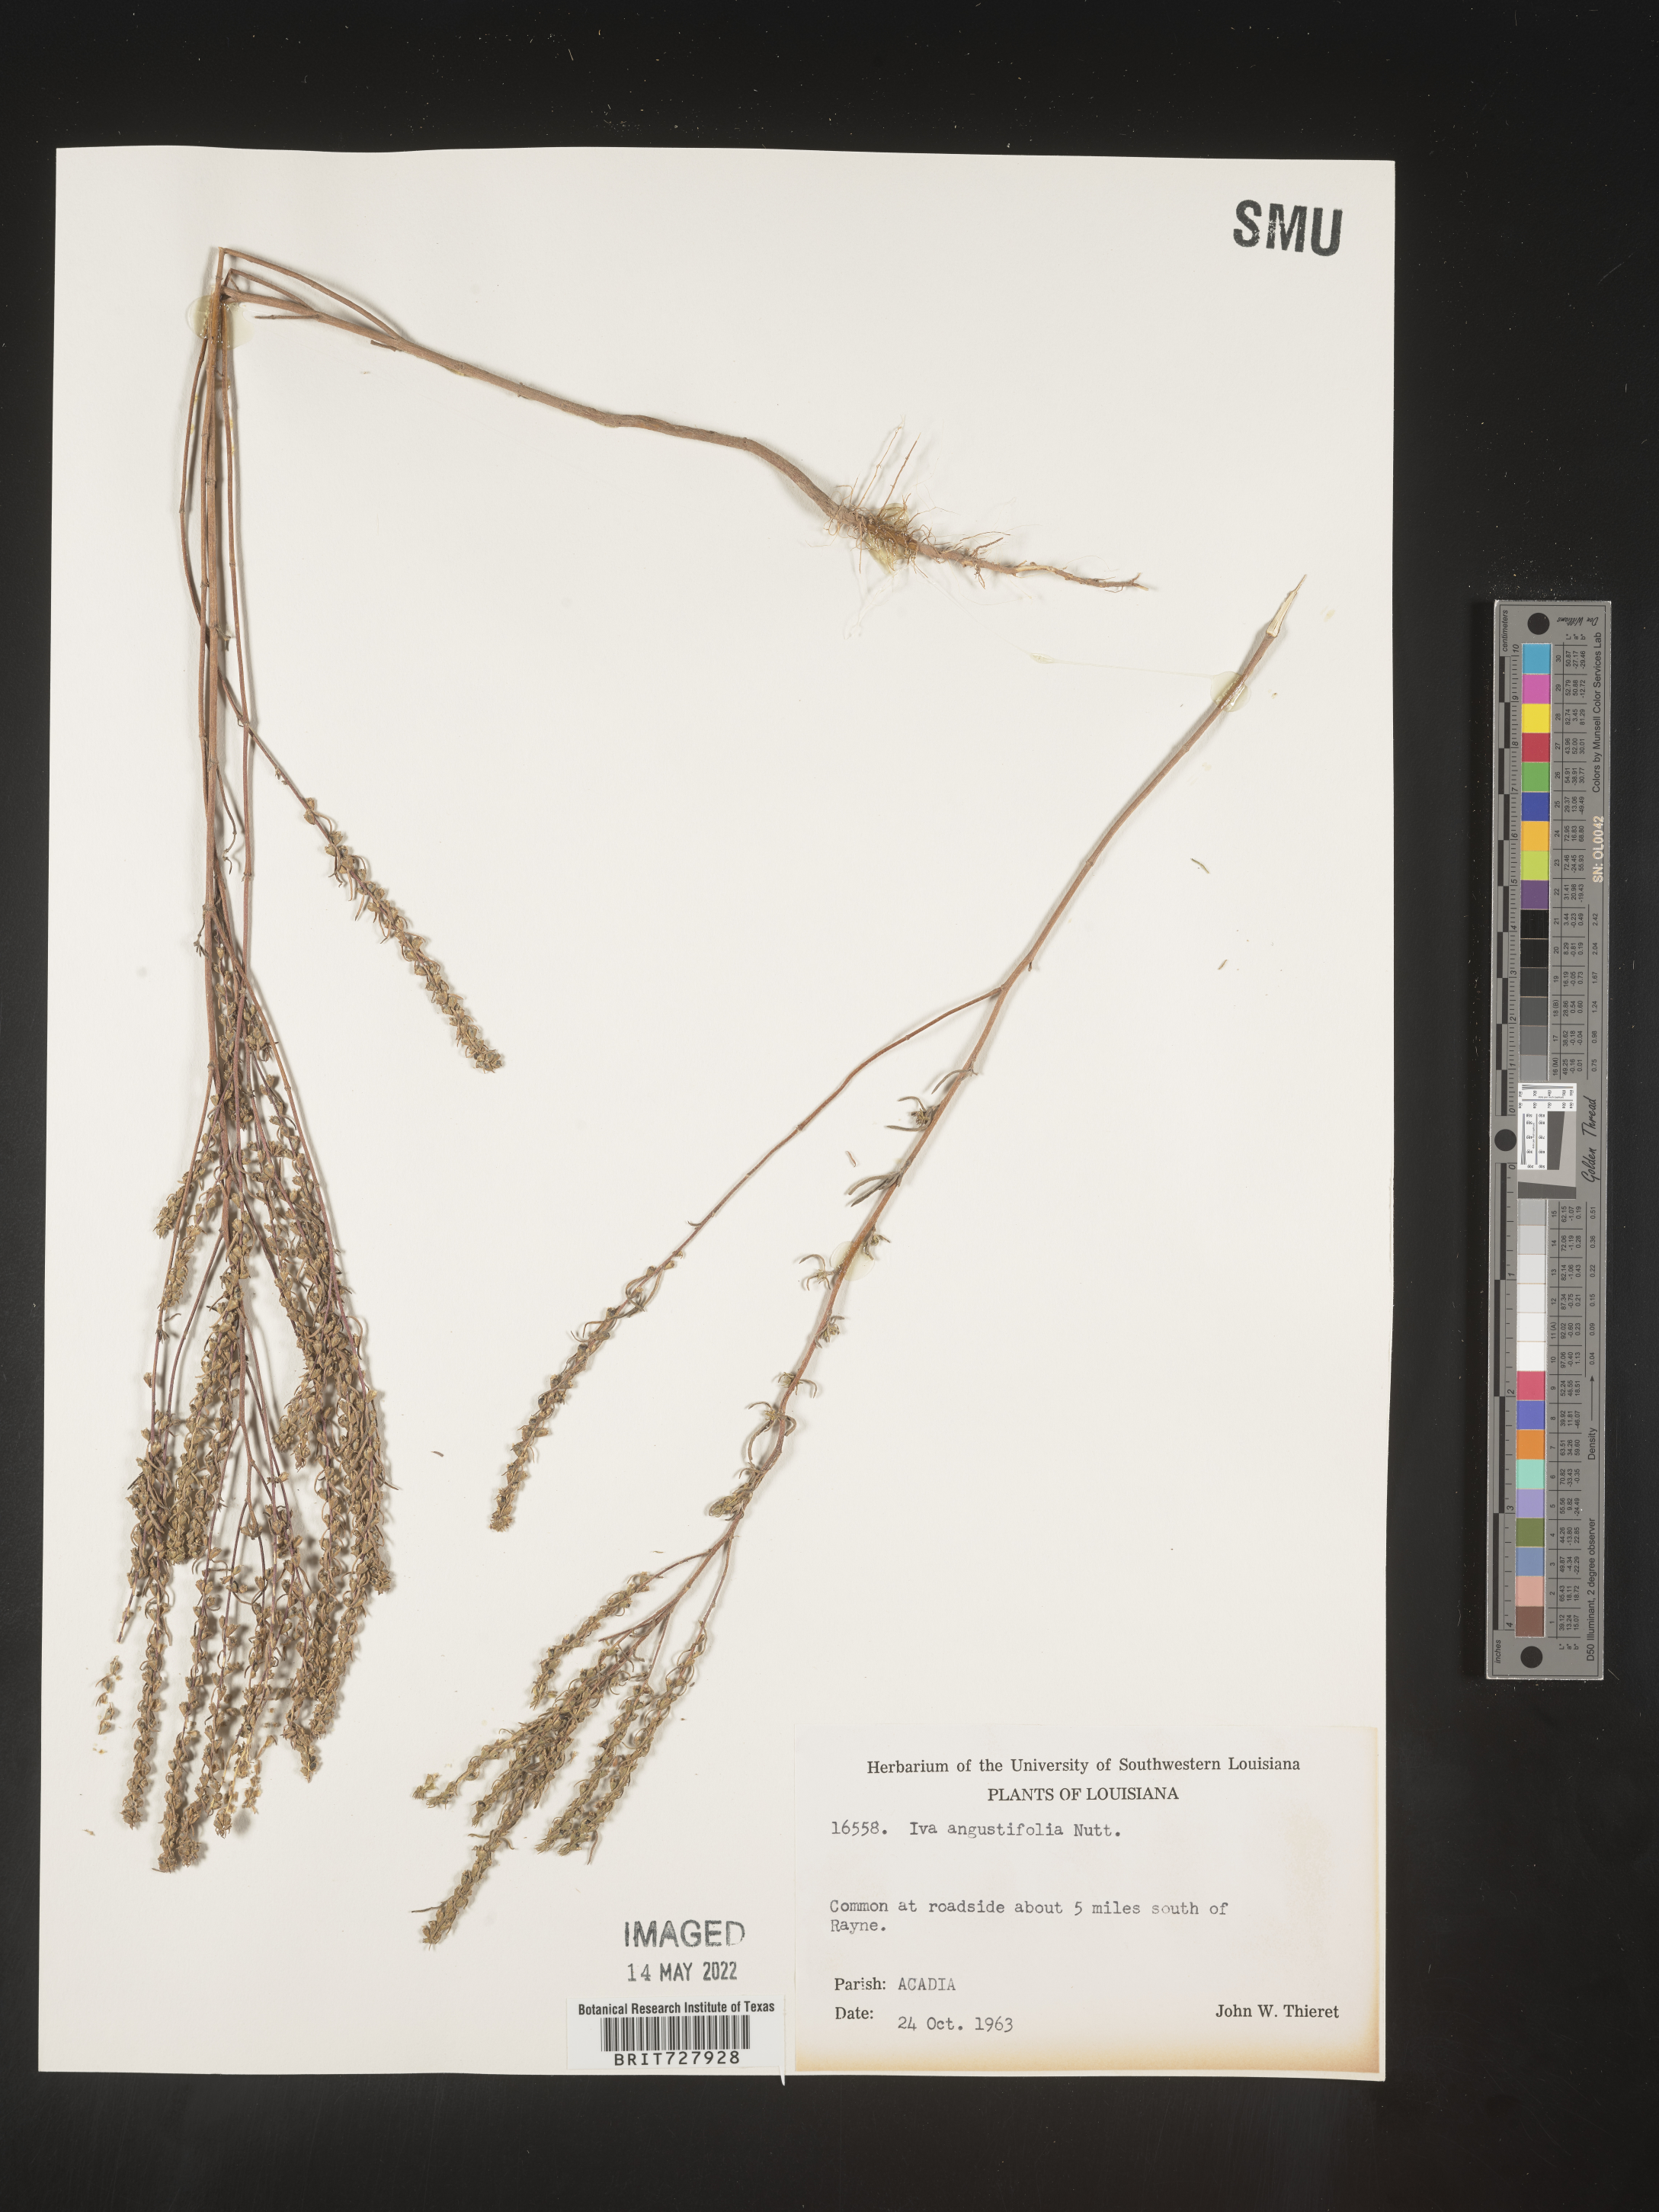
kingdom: Plantae
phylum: Tracheophyta
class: Magnoliopsida
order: Asterales
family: Asteraceae
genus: Iva
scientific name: Iva asperifolia
